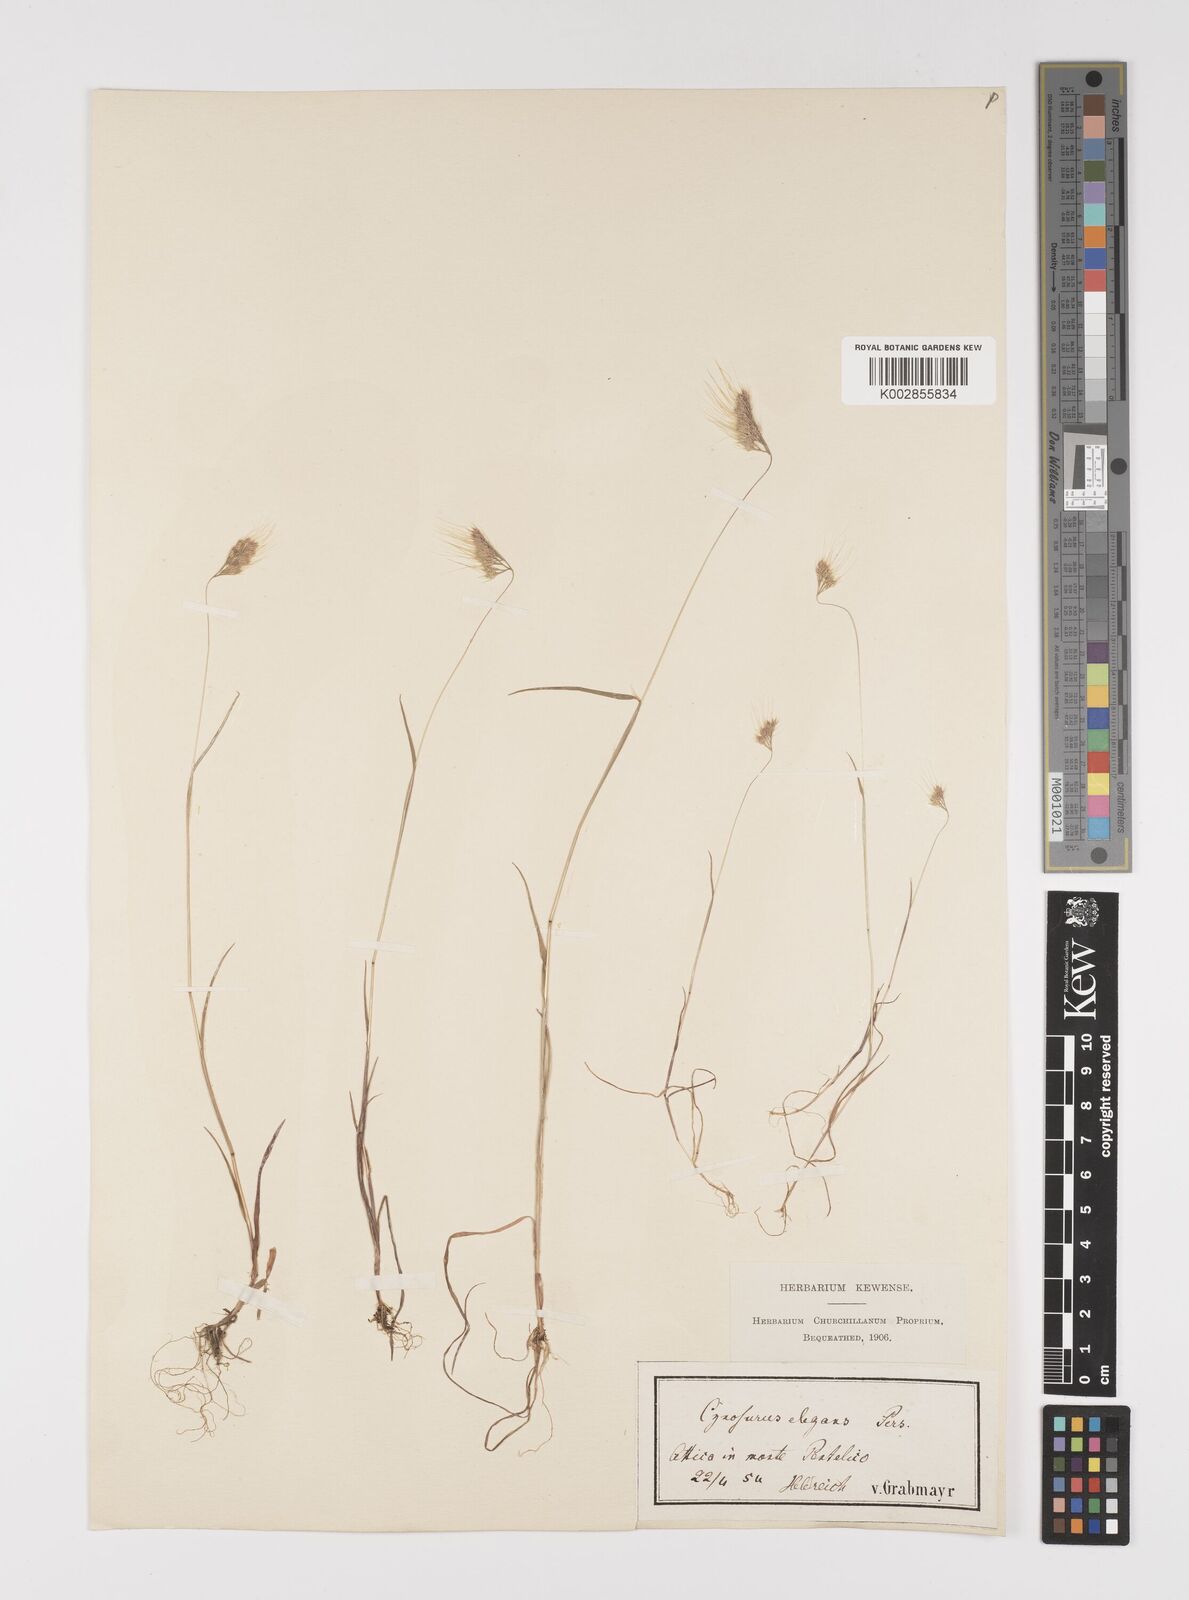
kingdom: Plantae
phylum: Tracheophyta
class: Liliopsida
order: Poales
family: Poaceae
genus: Cynosurus
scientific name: Cynosurus elegans
